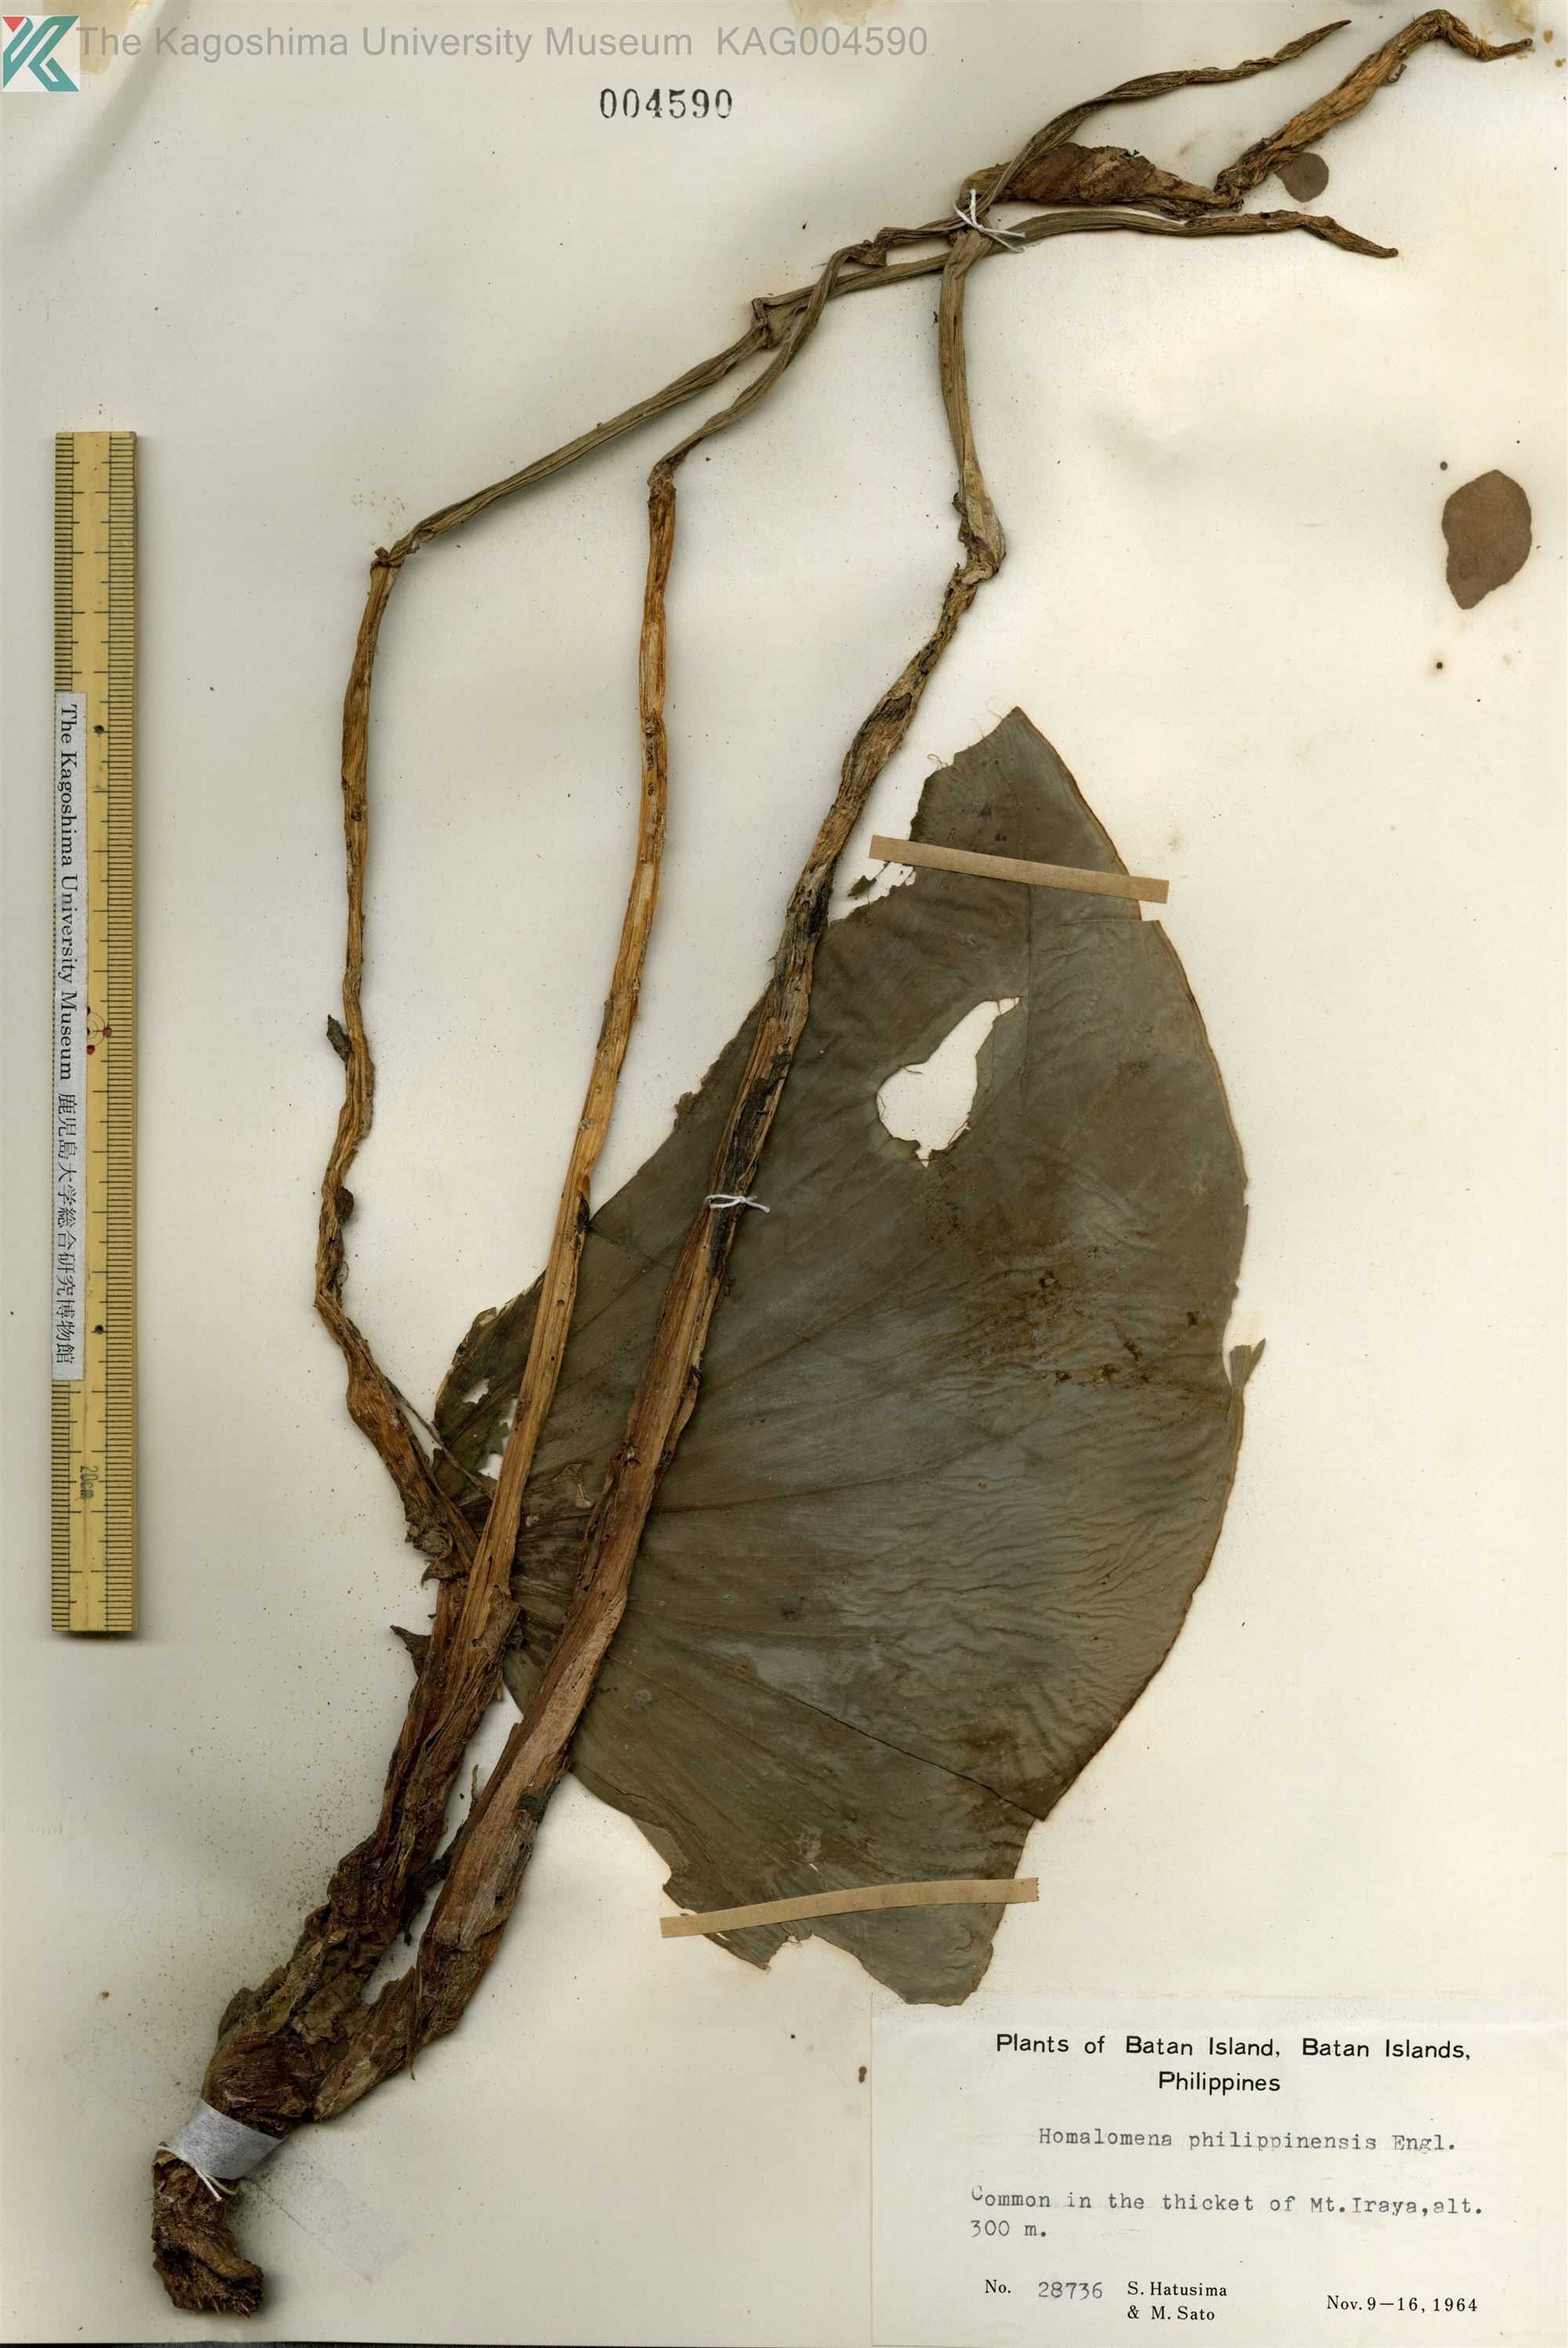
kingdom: Plantae
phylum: Tracheophyta
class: Liliopsida
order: Alismatales
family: Araceae
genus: Homalomena
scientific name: Homalomena philippinensis
